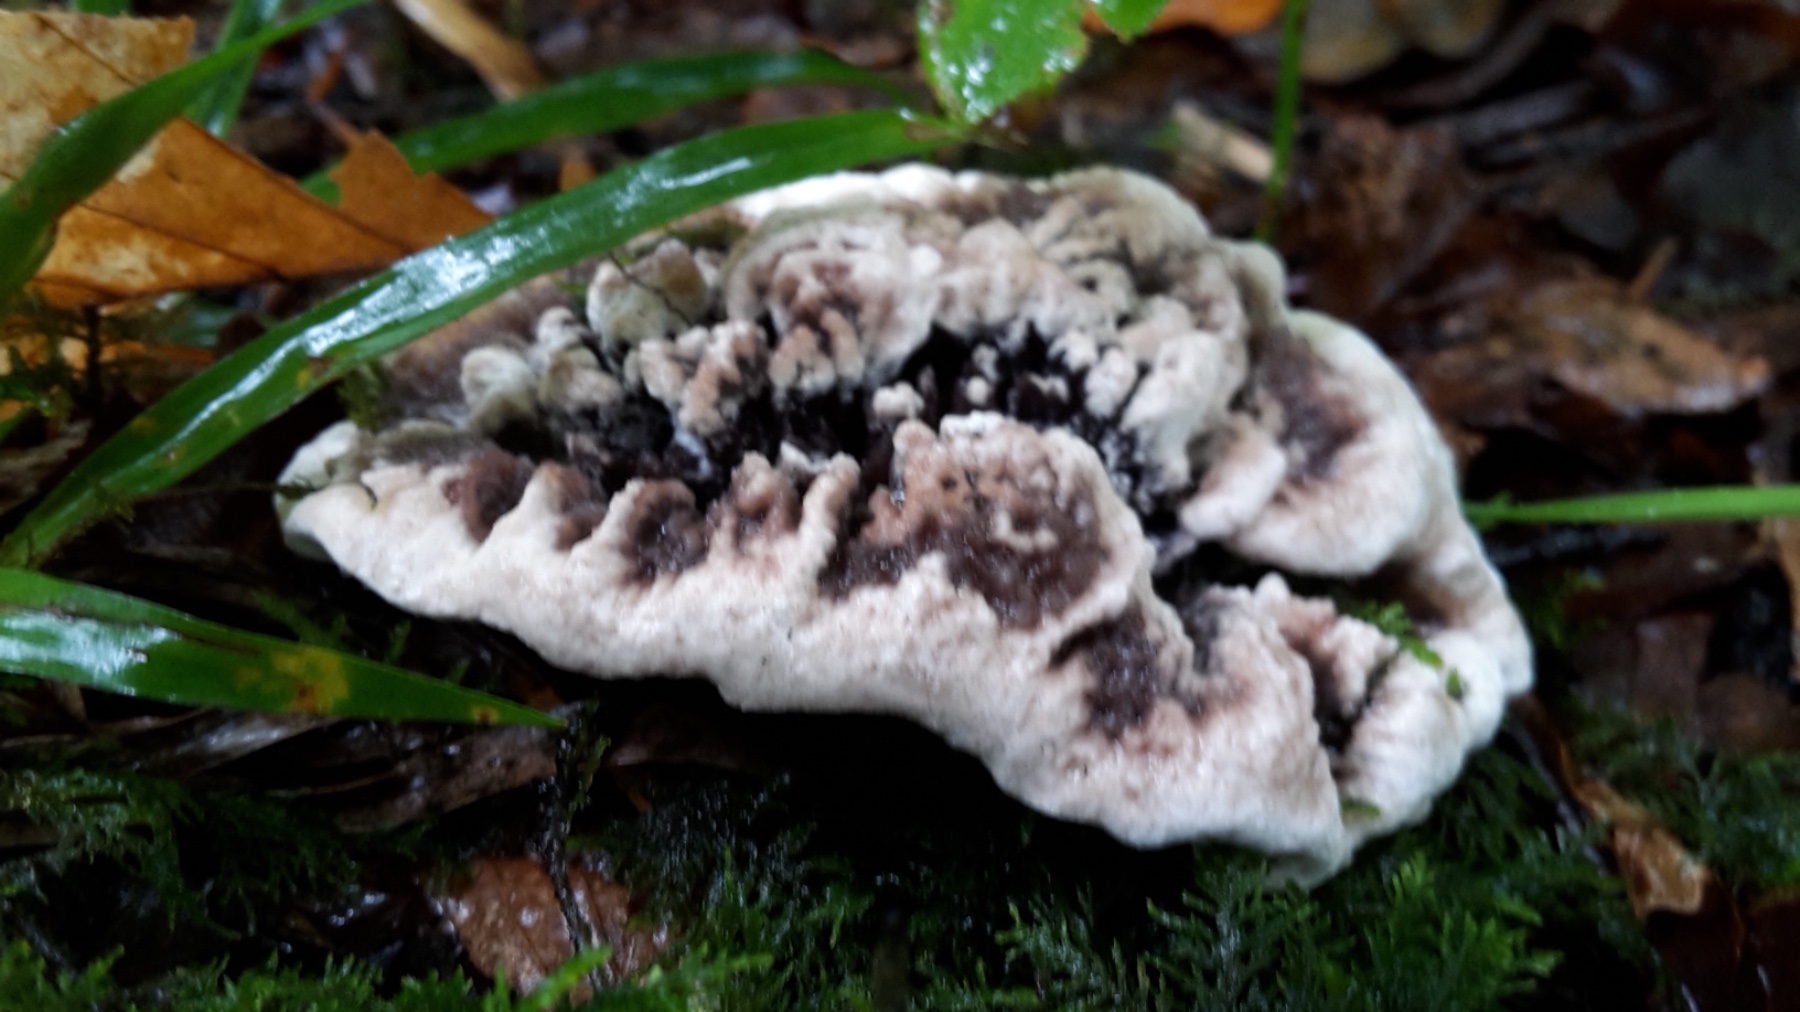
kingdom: Fungi
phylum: Basidiomycota
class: Agaricomycetes
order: Thelephorales
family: Thelephoraceae
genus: Phellodon
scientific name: Phellodon confluens
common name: pjaltet duftpigsvamp
